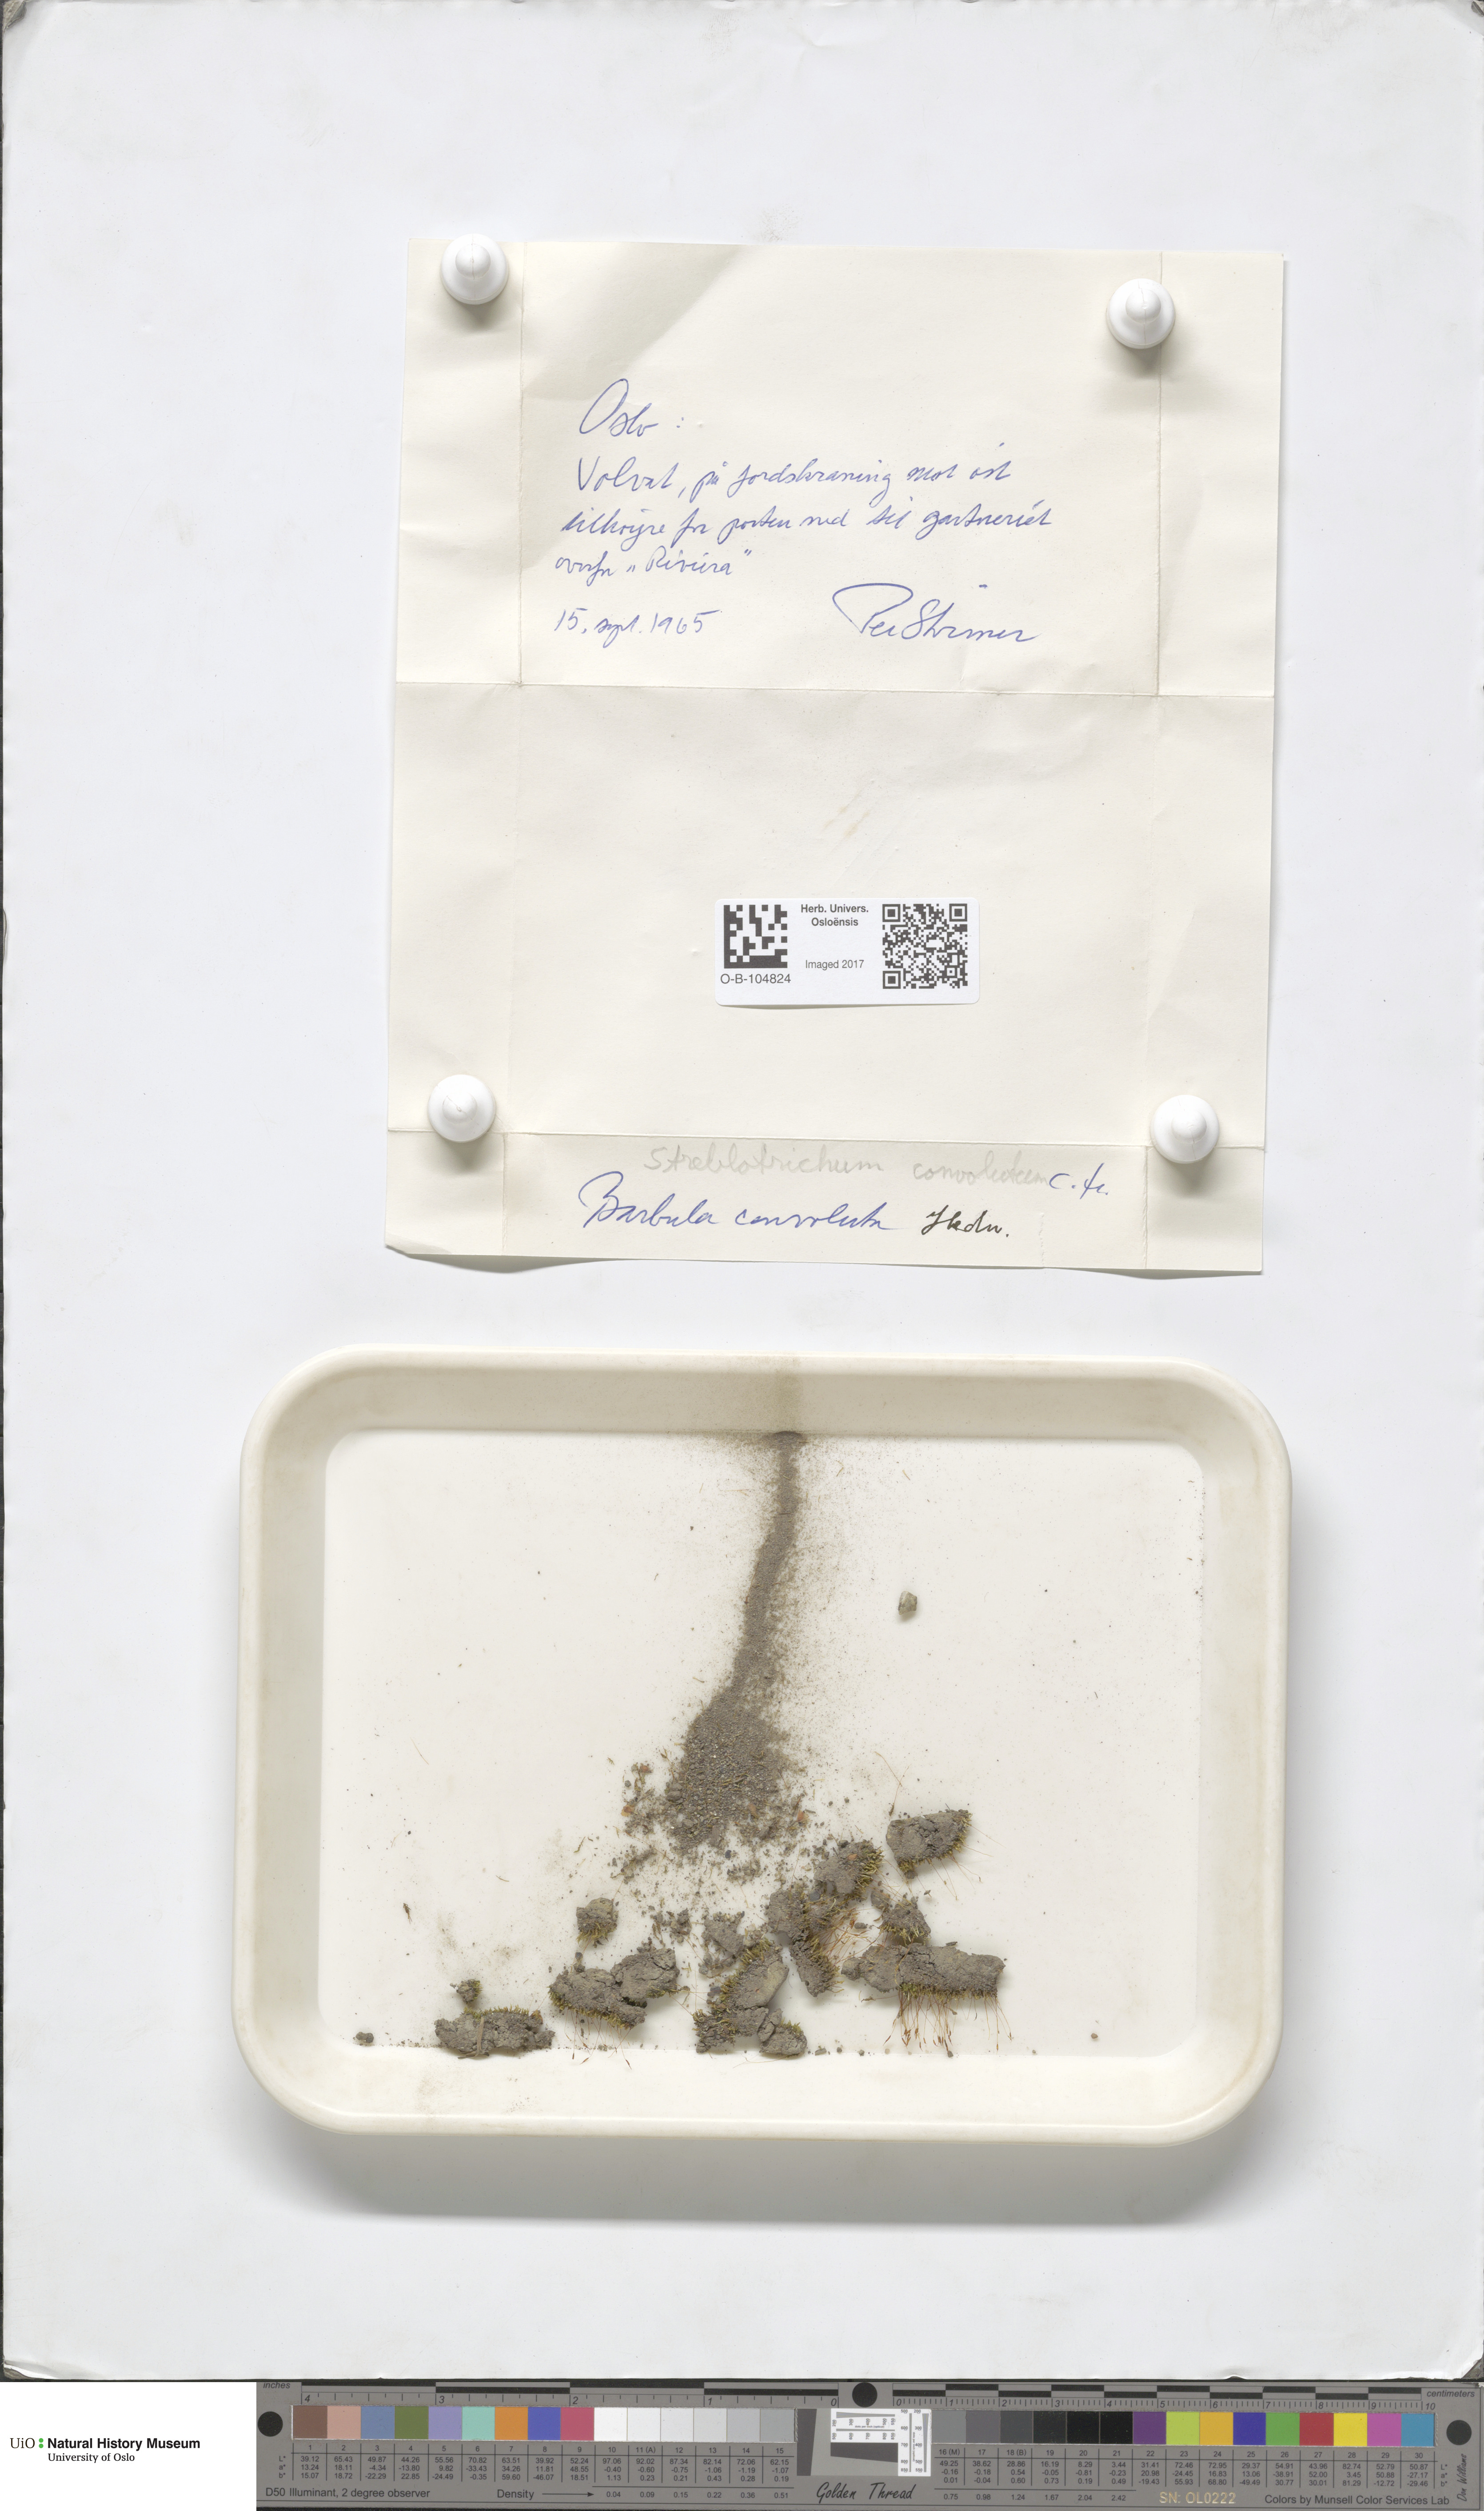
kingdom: Plantae
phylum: Bryophyta
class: Bryopsida
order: Pottiales
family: Pottiaceae
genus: Streblotrichum
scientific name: Streblotrichum convolutum
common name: Lesser bird's-claw beard-moss
